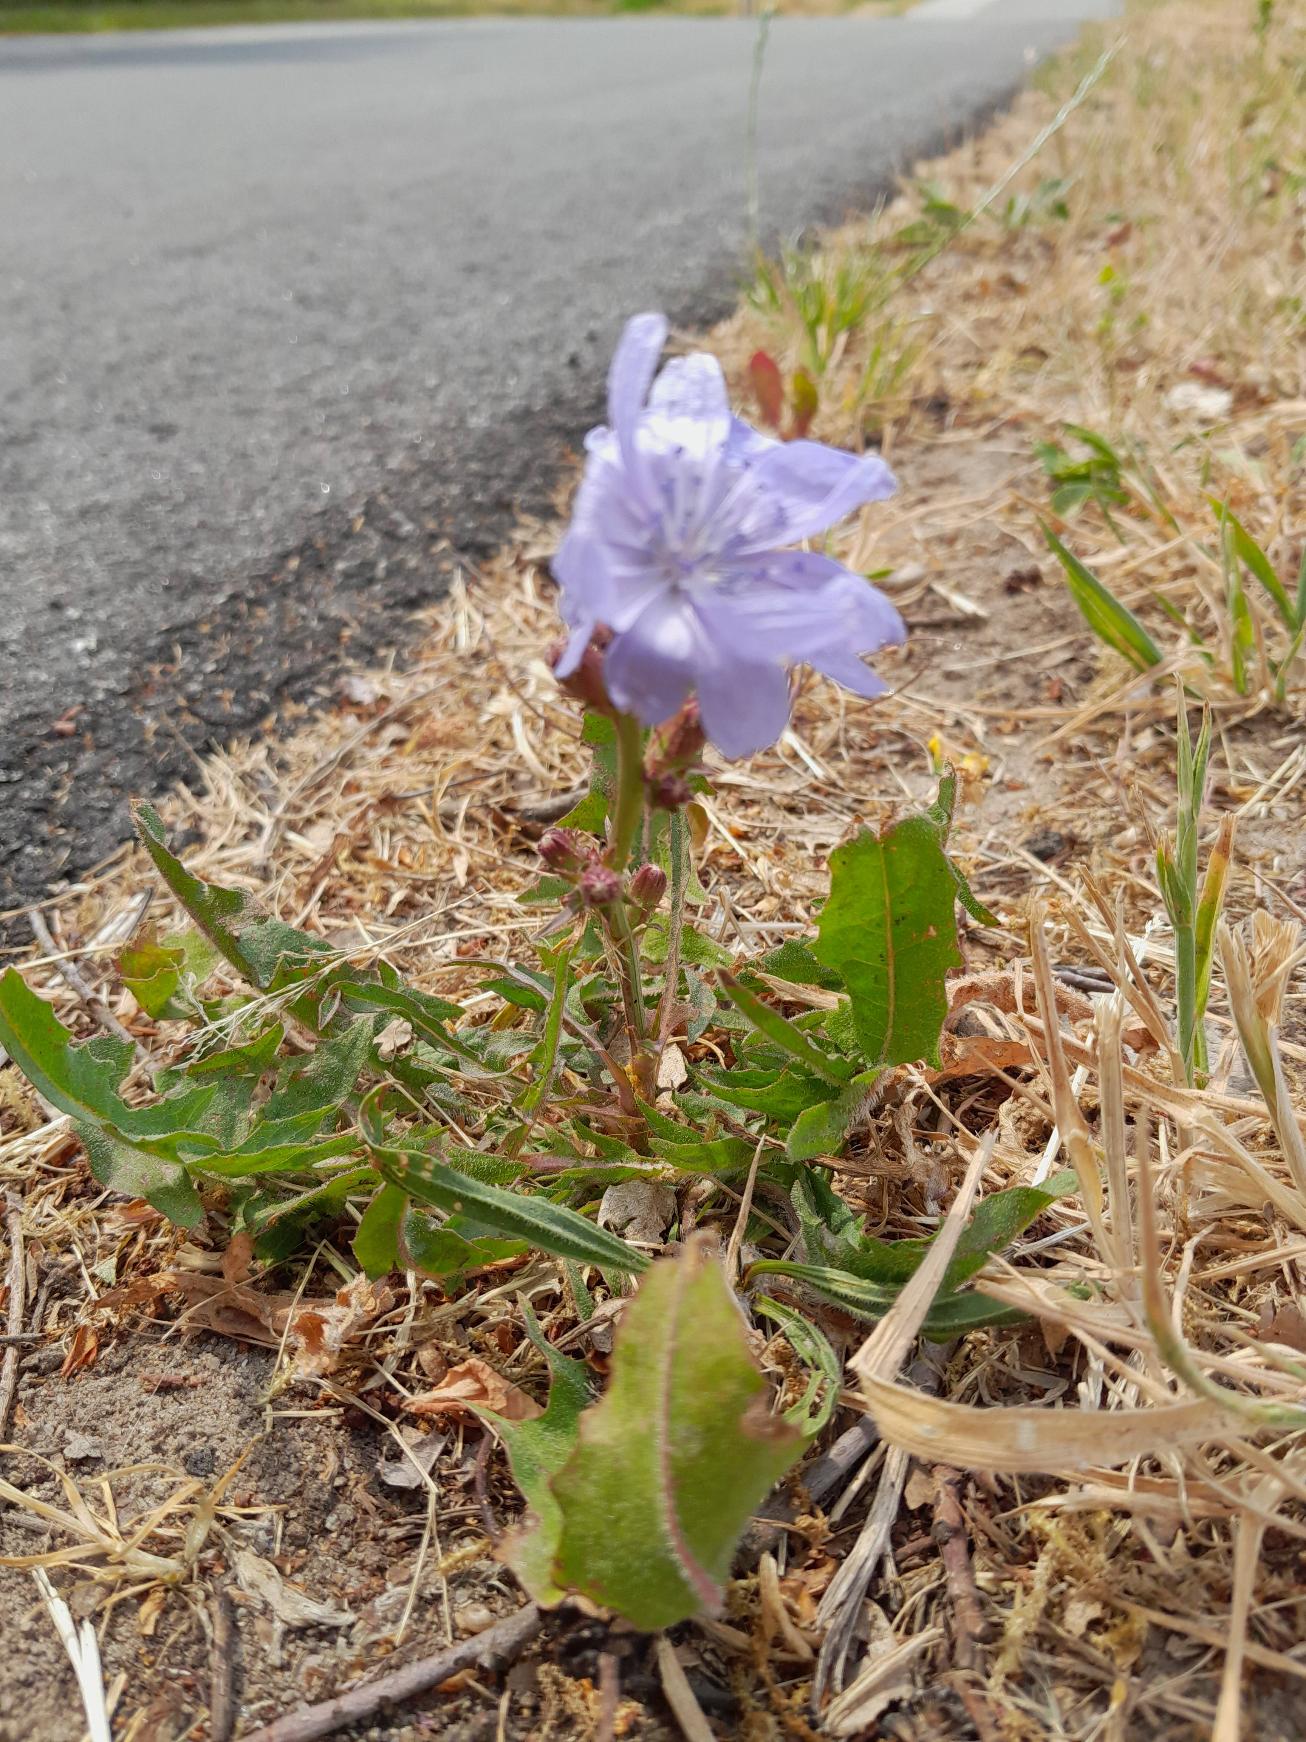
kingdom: Plantae
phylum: Tracheophyta
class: Magnoliopsida
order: Asterales
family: Asteraceae
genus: Cichorium
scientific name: Cichorium intybus
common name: Cikorie
